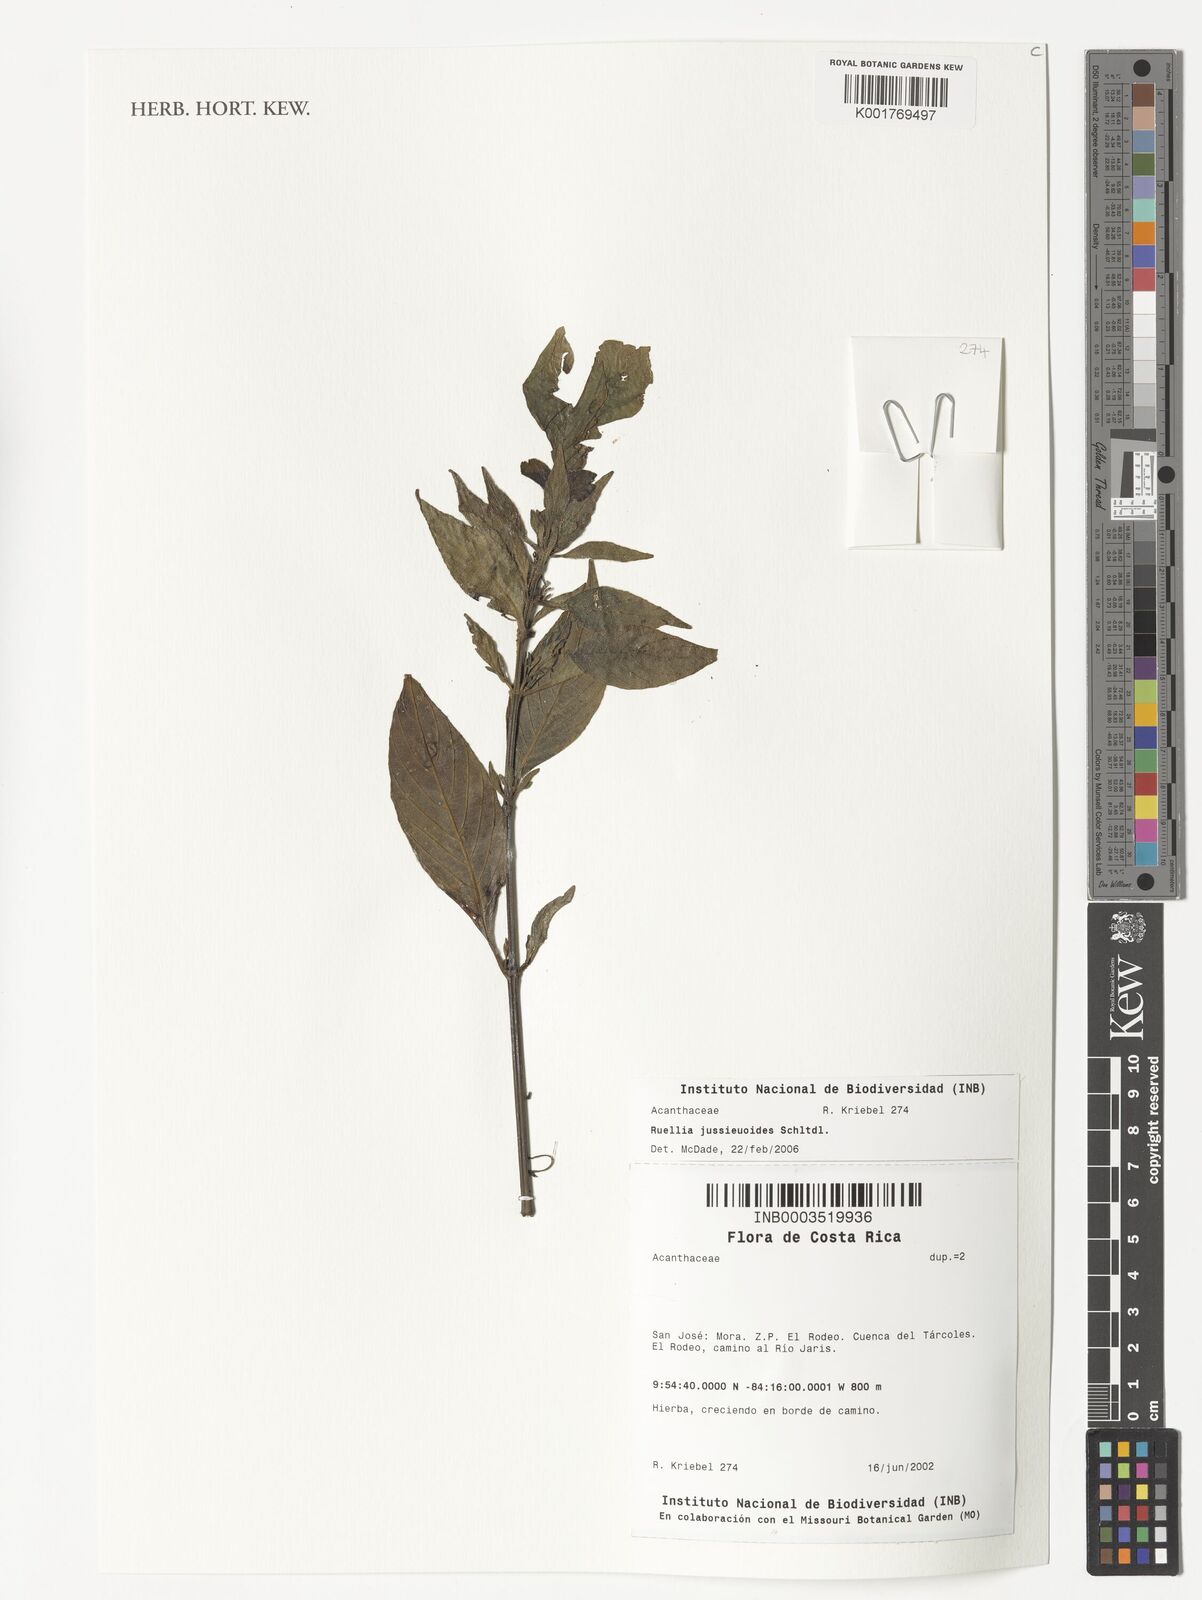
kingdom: Plantae
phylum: Tracheophyta
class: Magnoliopsida
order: Lamiales
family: Acanthaceae
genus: Ruellia
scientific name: Ruellia jussieuoides
